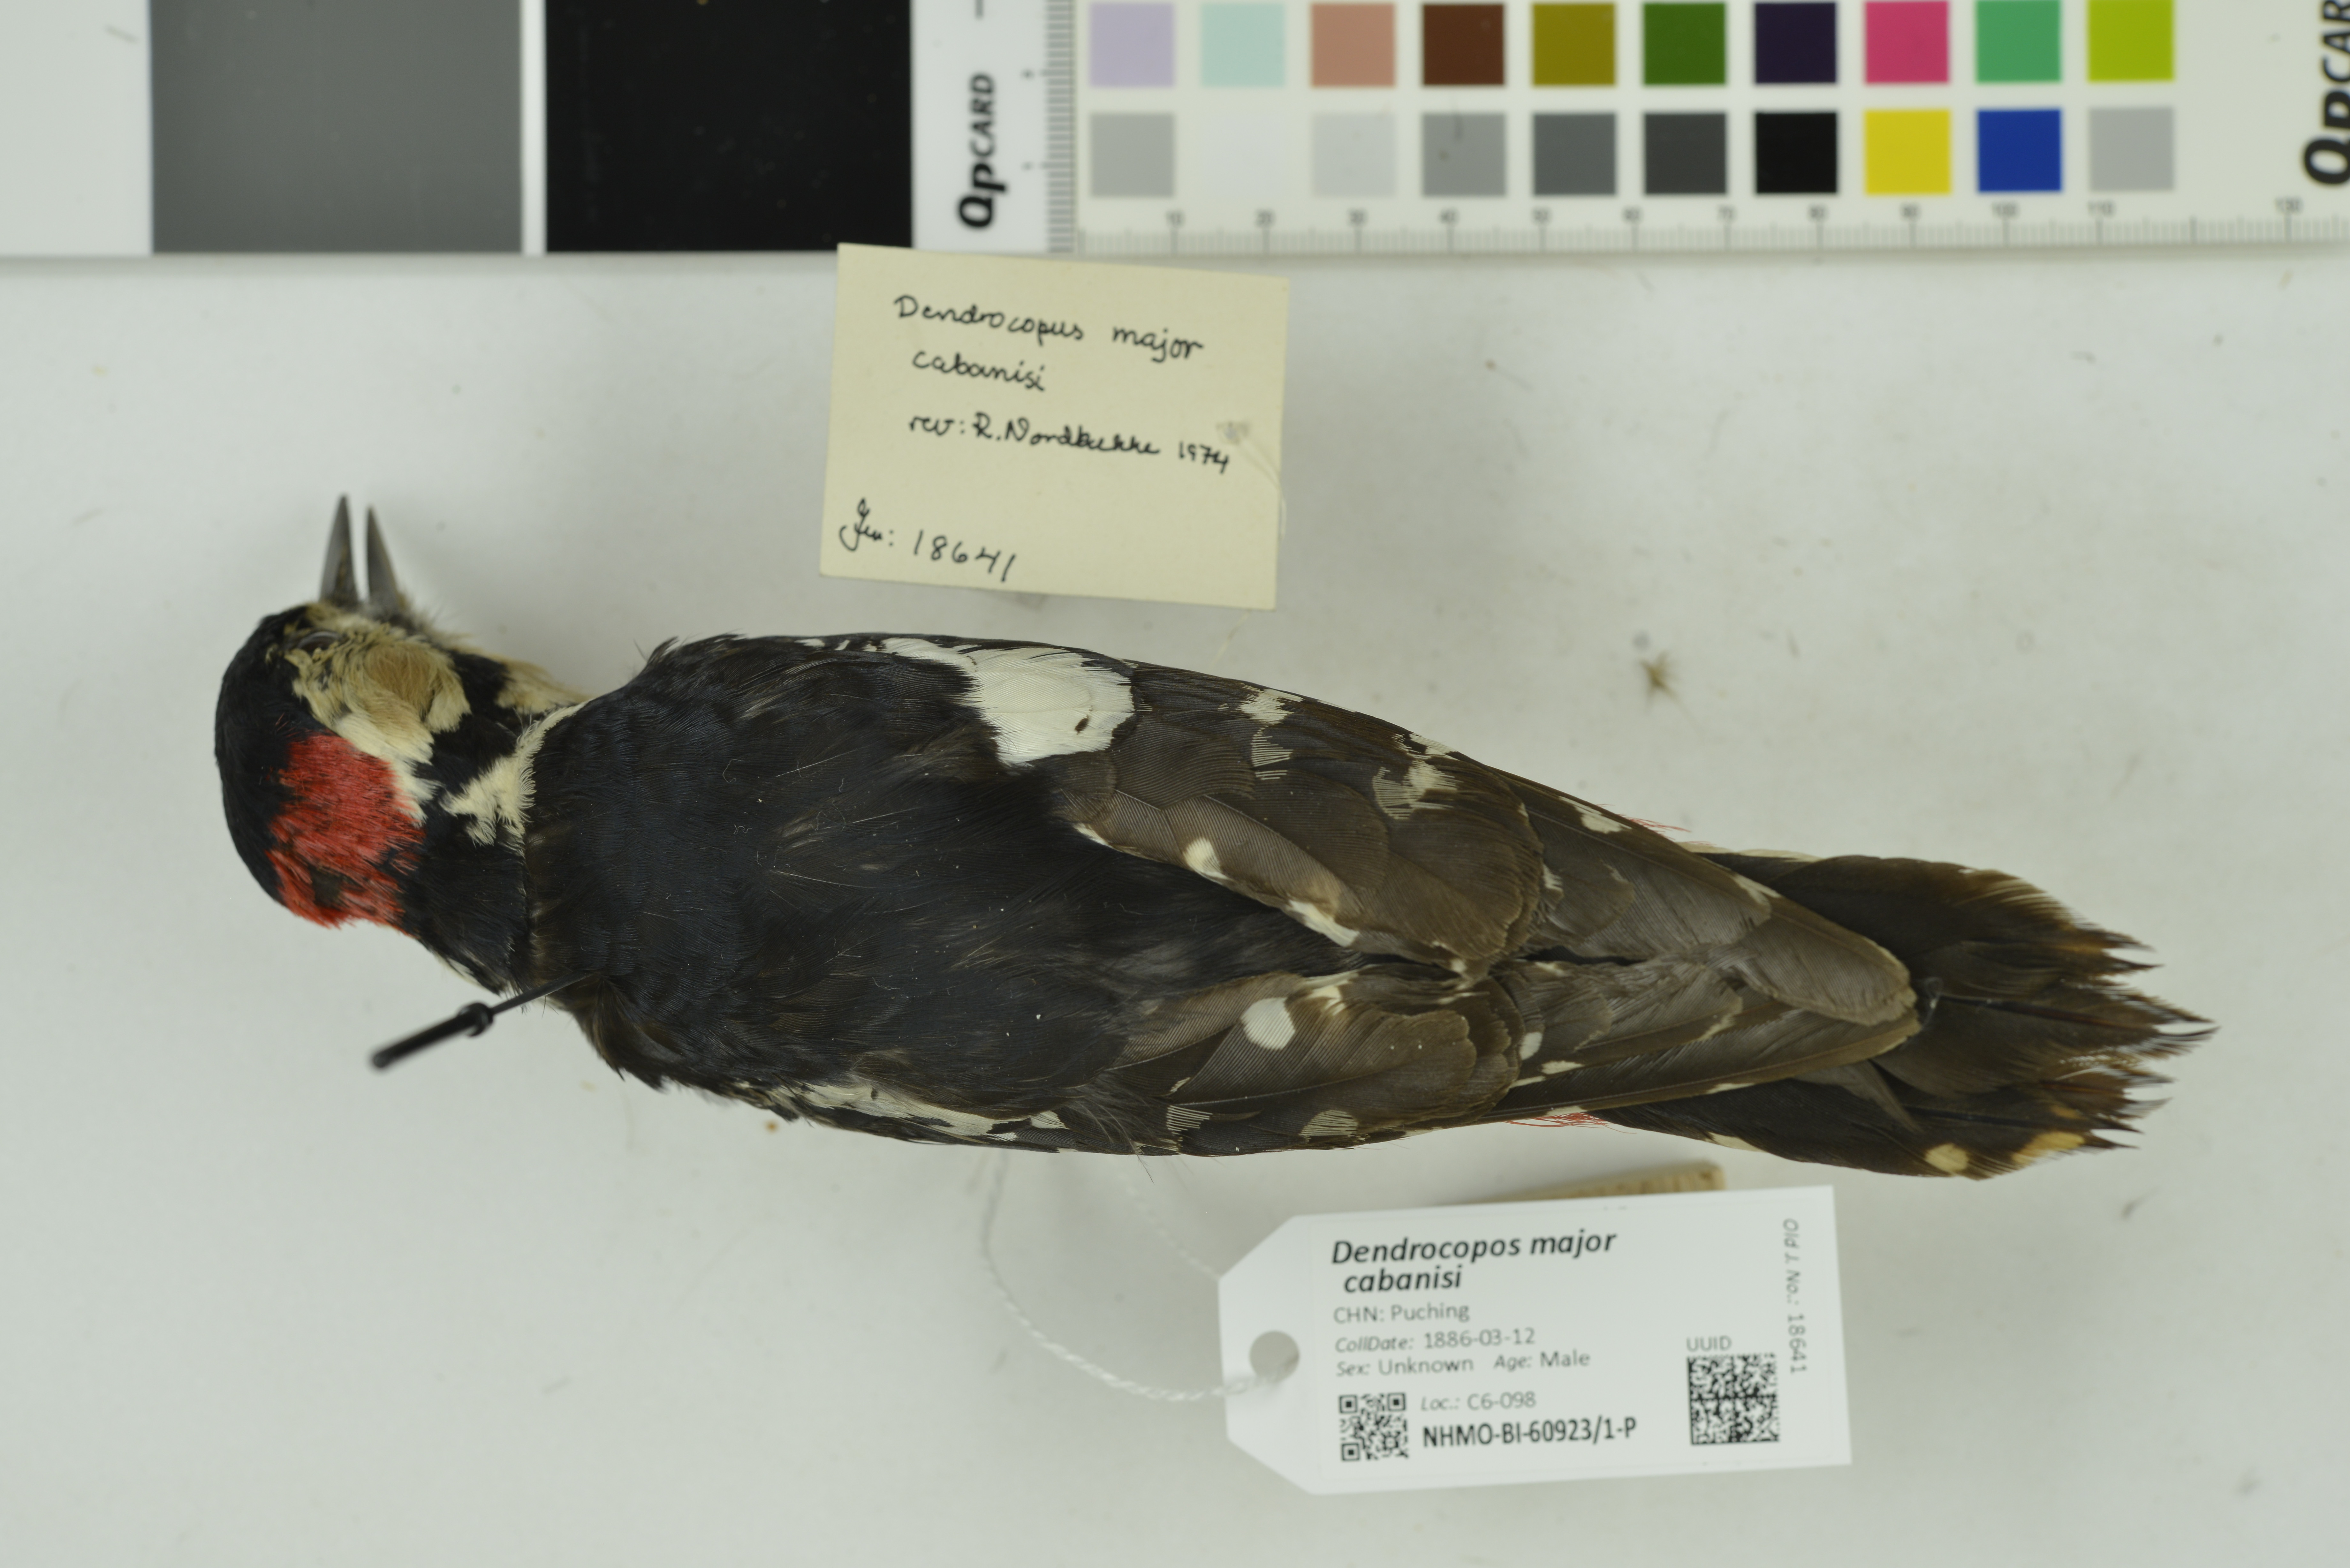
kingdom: Animalia
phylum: Chordata
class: Aves
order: Piciformes
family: Picidae
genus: Dendrocopos
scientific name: Dendrocopos major
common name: Great spotted woodpecker
